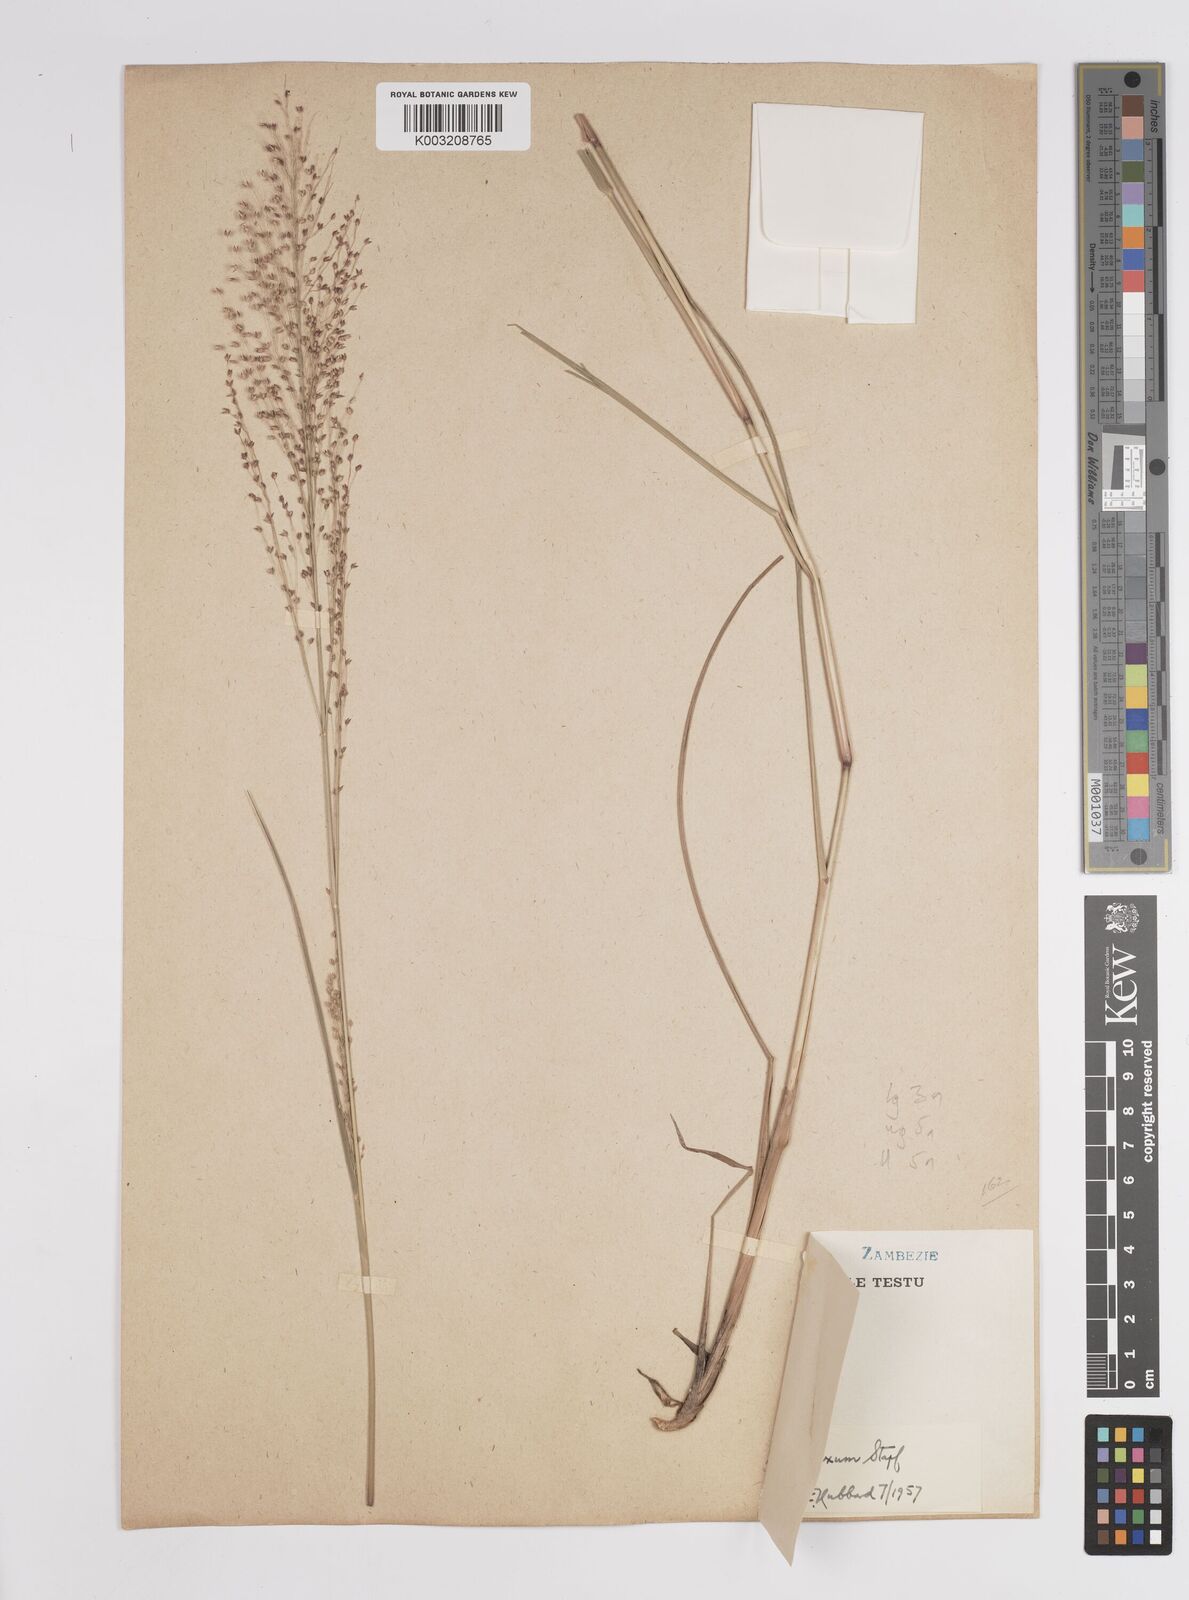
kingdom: Plantae
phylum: Tracheophyta
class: Liliopsida
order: Poales
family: Poaceae
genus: Panicum
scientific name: Panicum fluviicola
